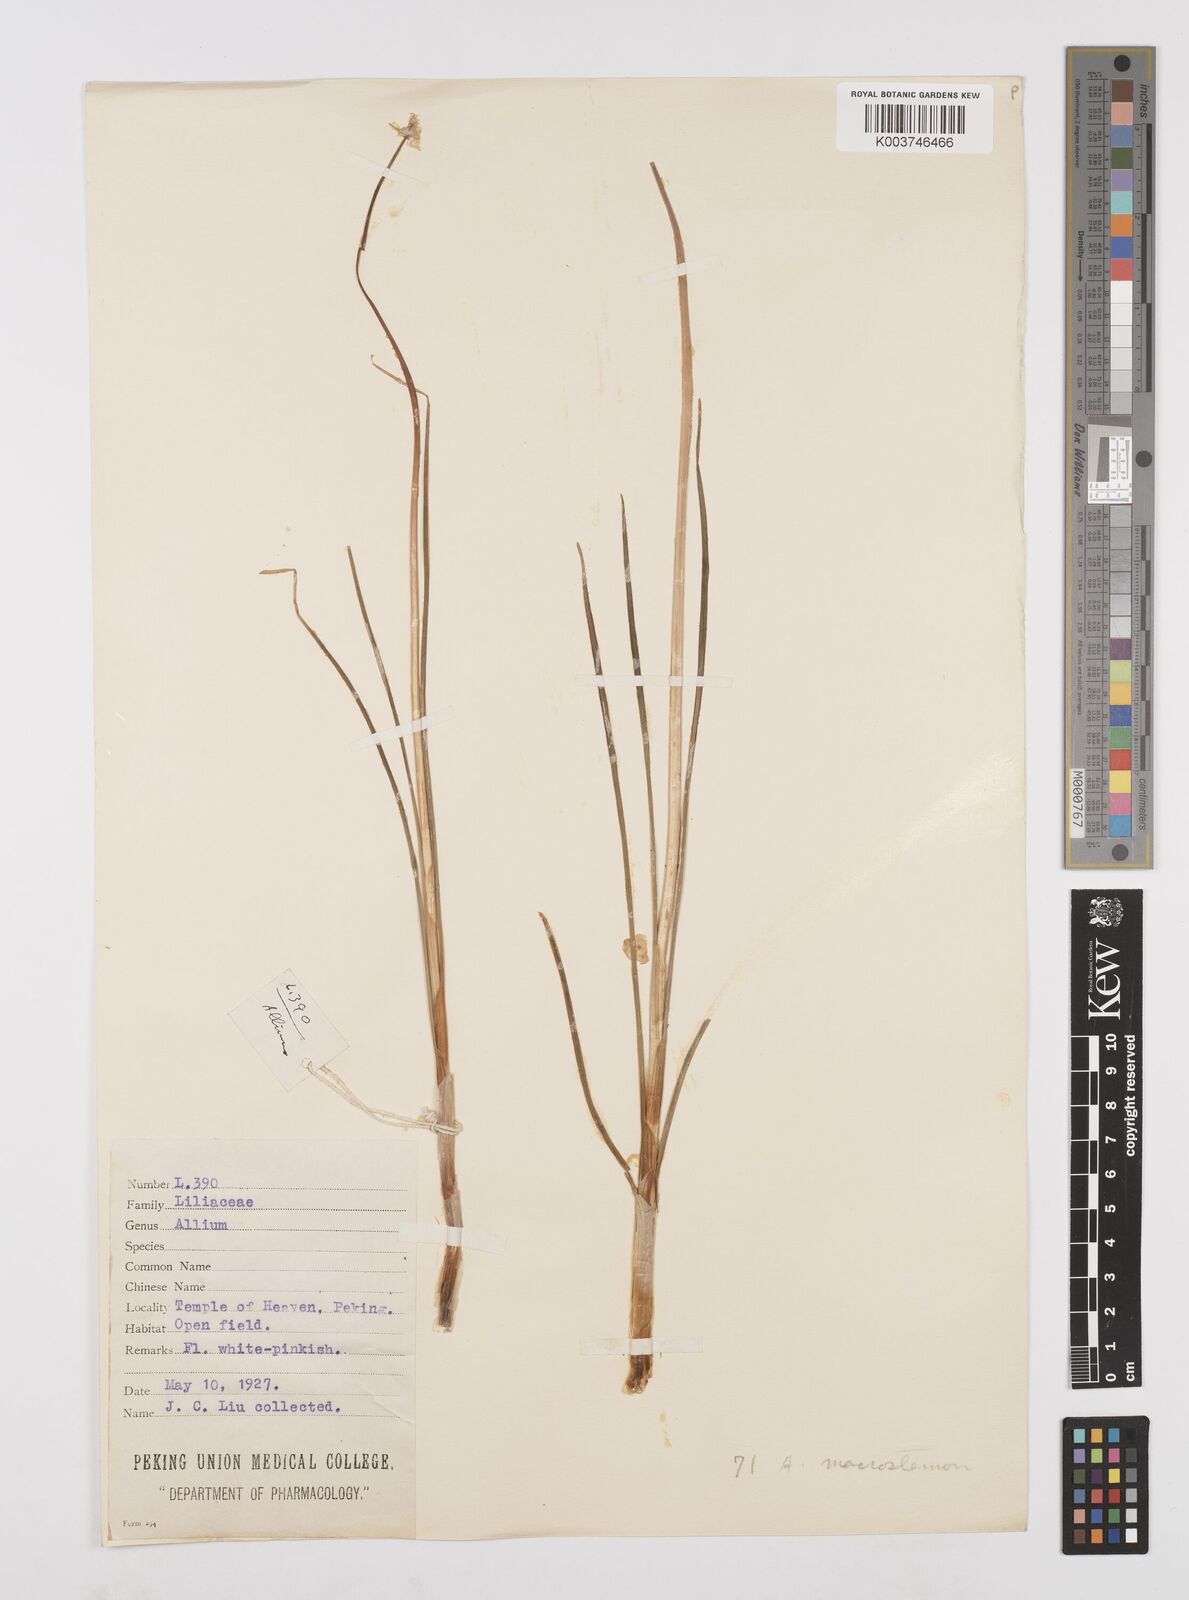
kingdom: Plantae
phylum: Tracheophyta
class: Liliopsida
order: Asparagales
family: Amaryllidaceae
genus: Allium
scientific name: Allium macrostemon
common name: Chinese garlic
